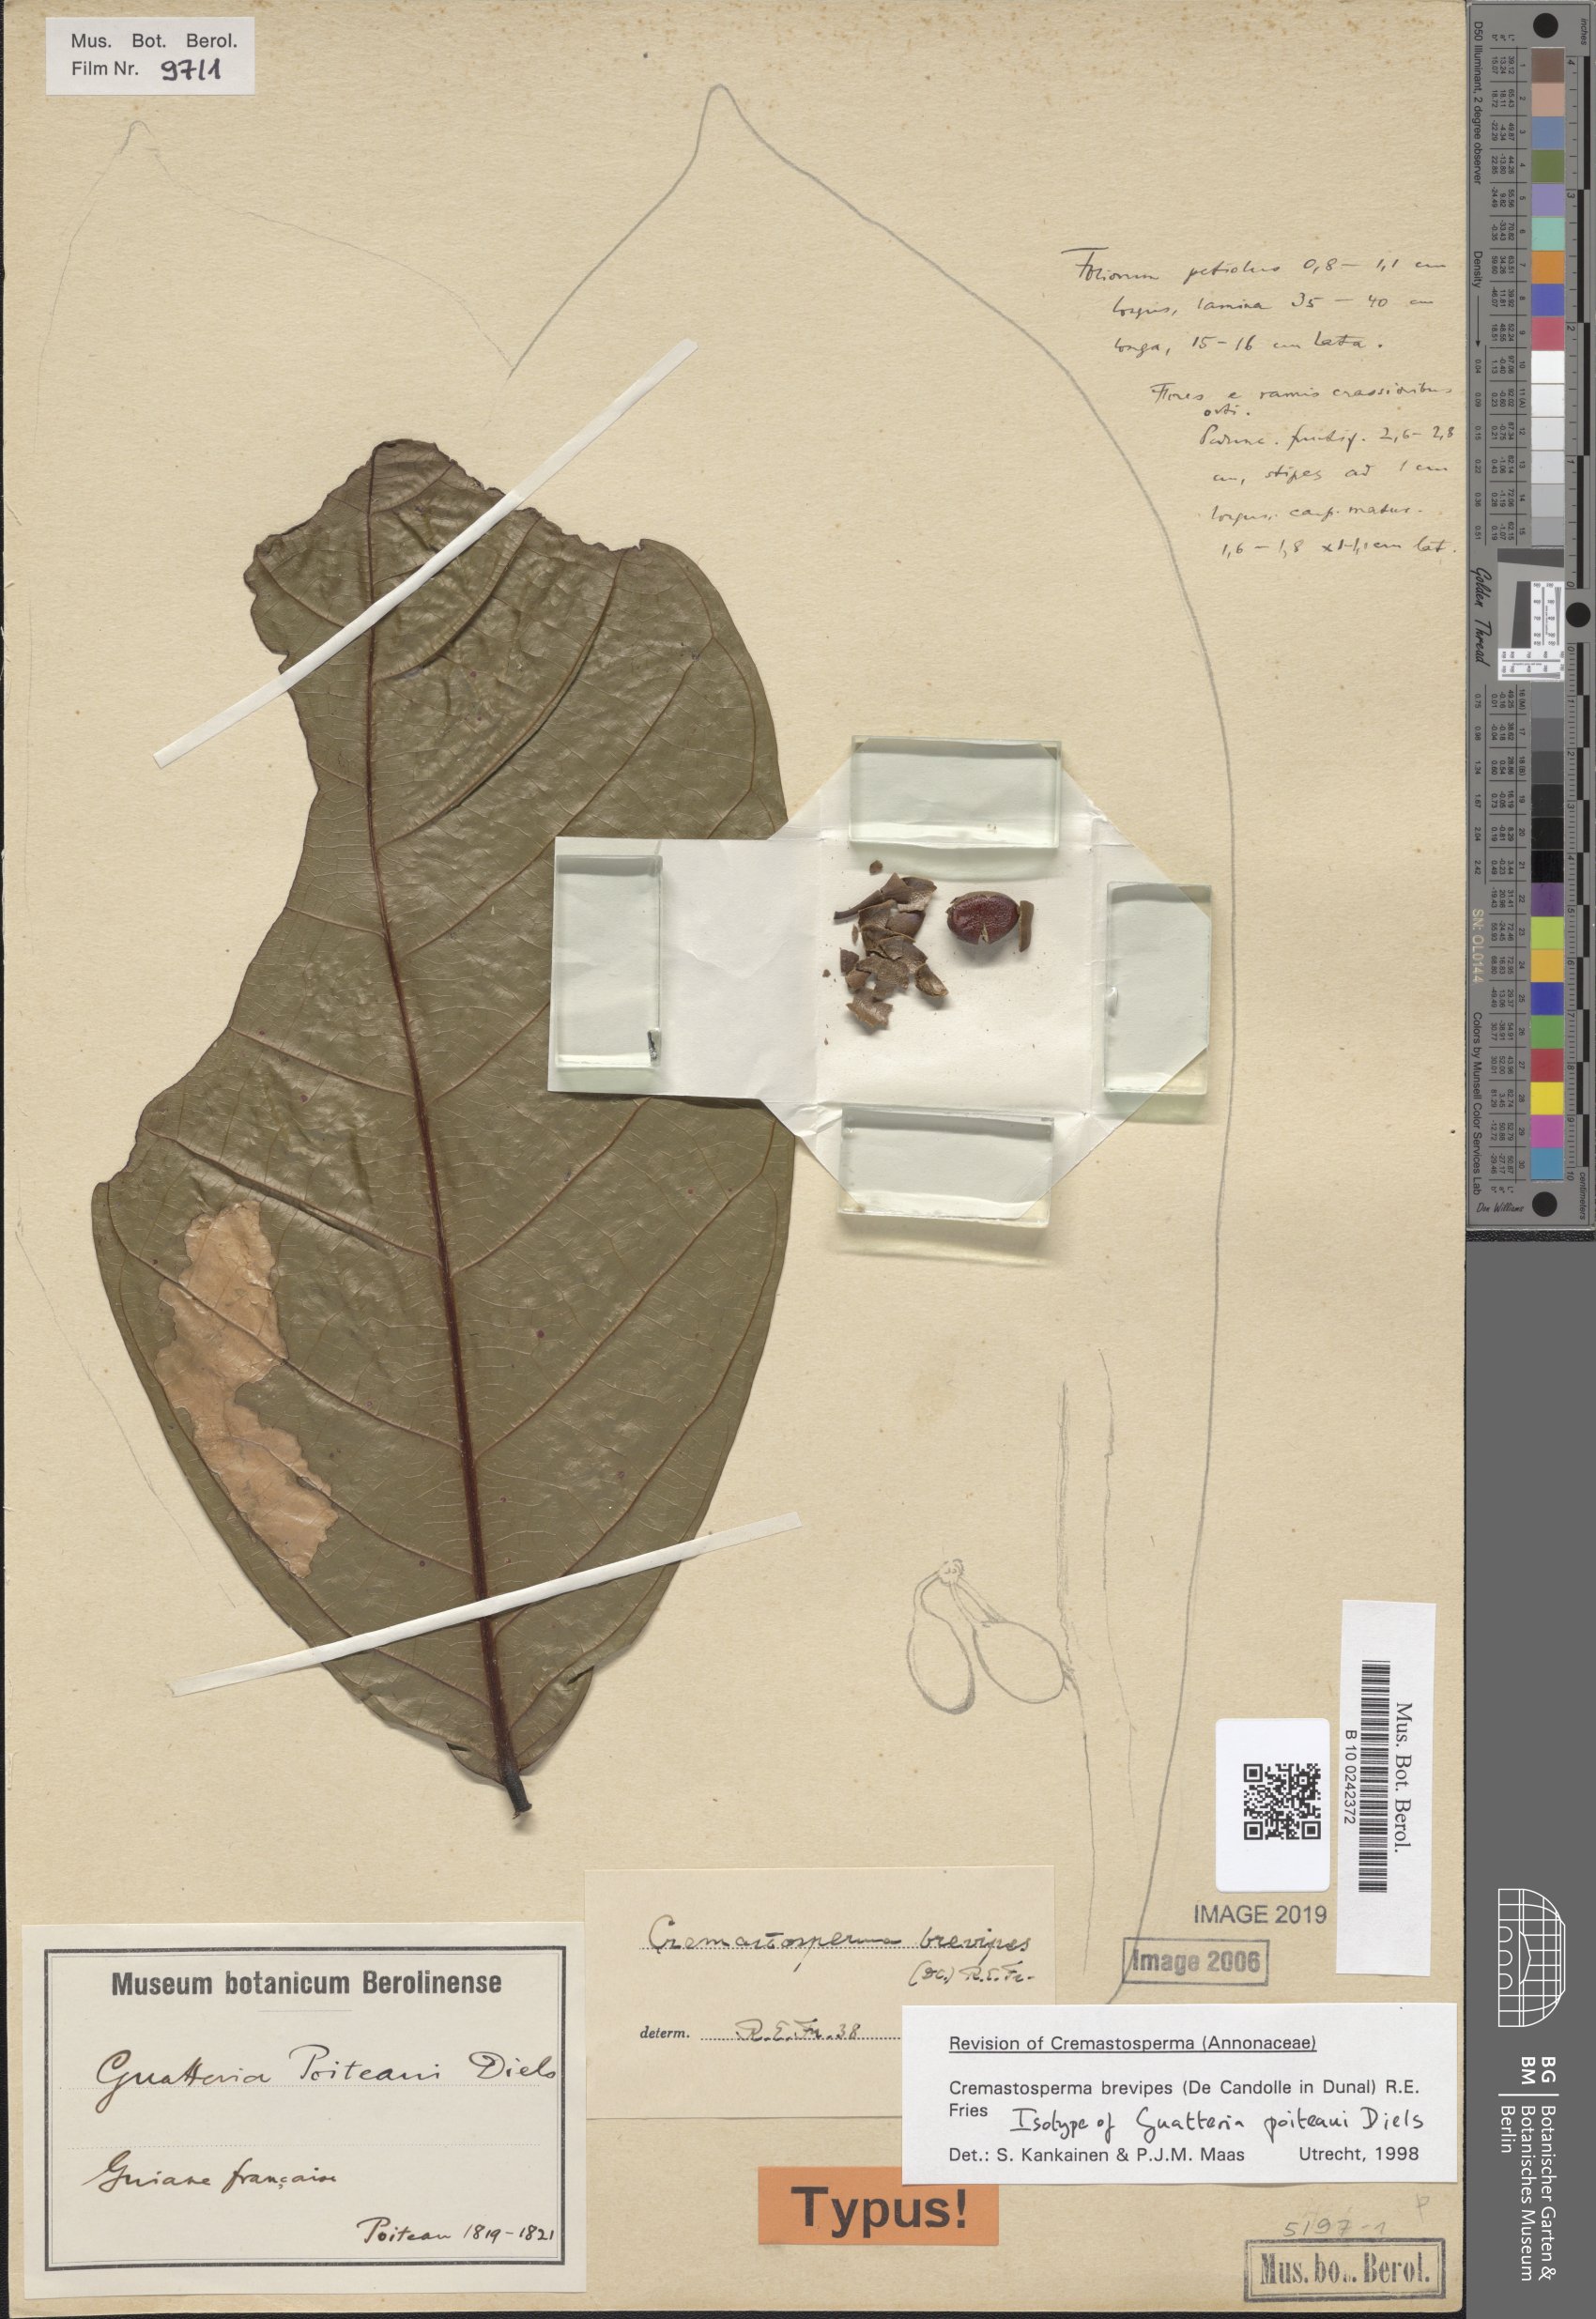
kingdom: Plantae
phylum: Tracheophyta
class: Magnoliopsida
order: Magnoliales
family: Annonaceae
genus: Cremastosperma
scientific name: Cremastosperma brevipes
